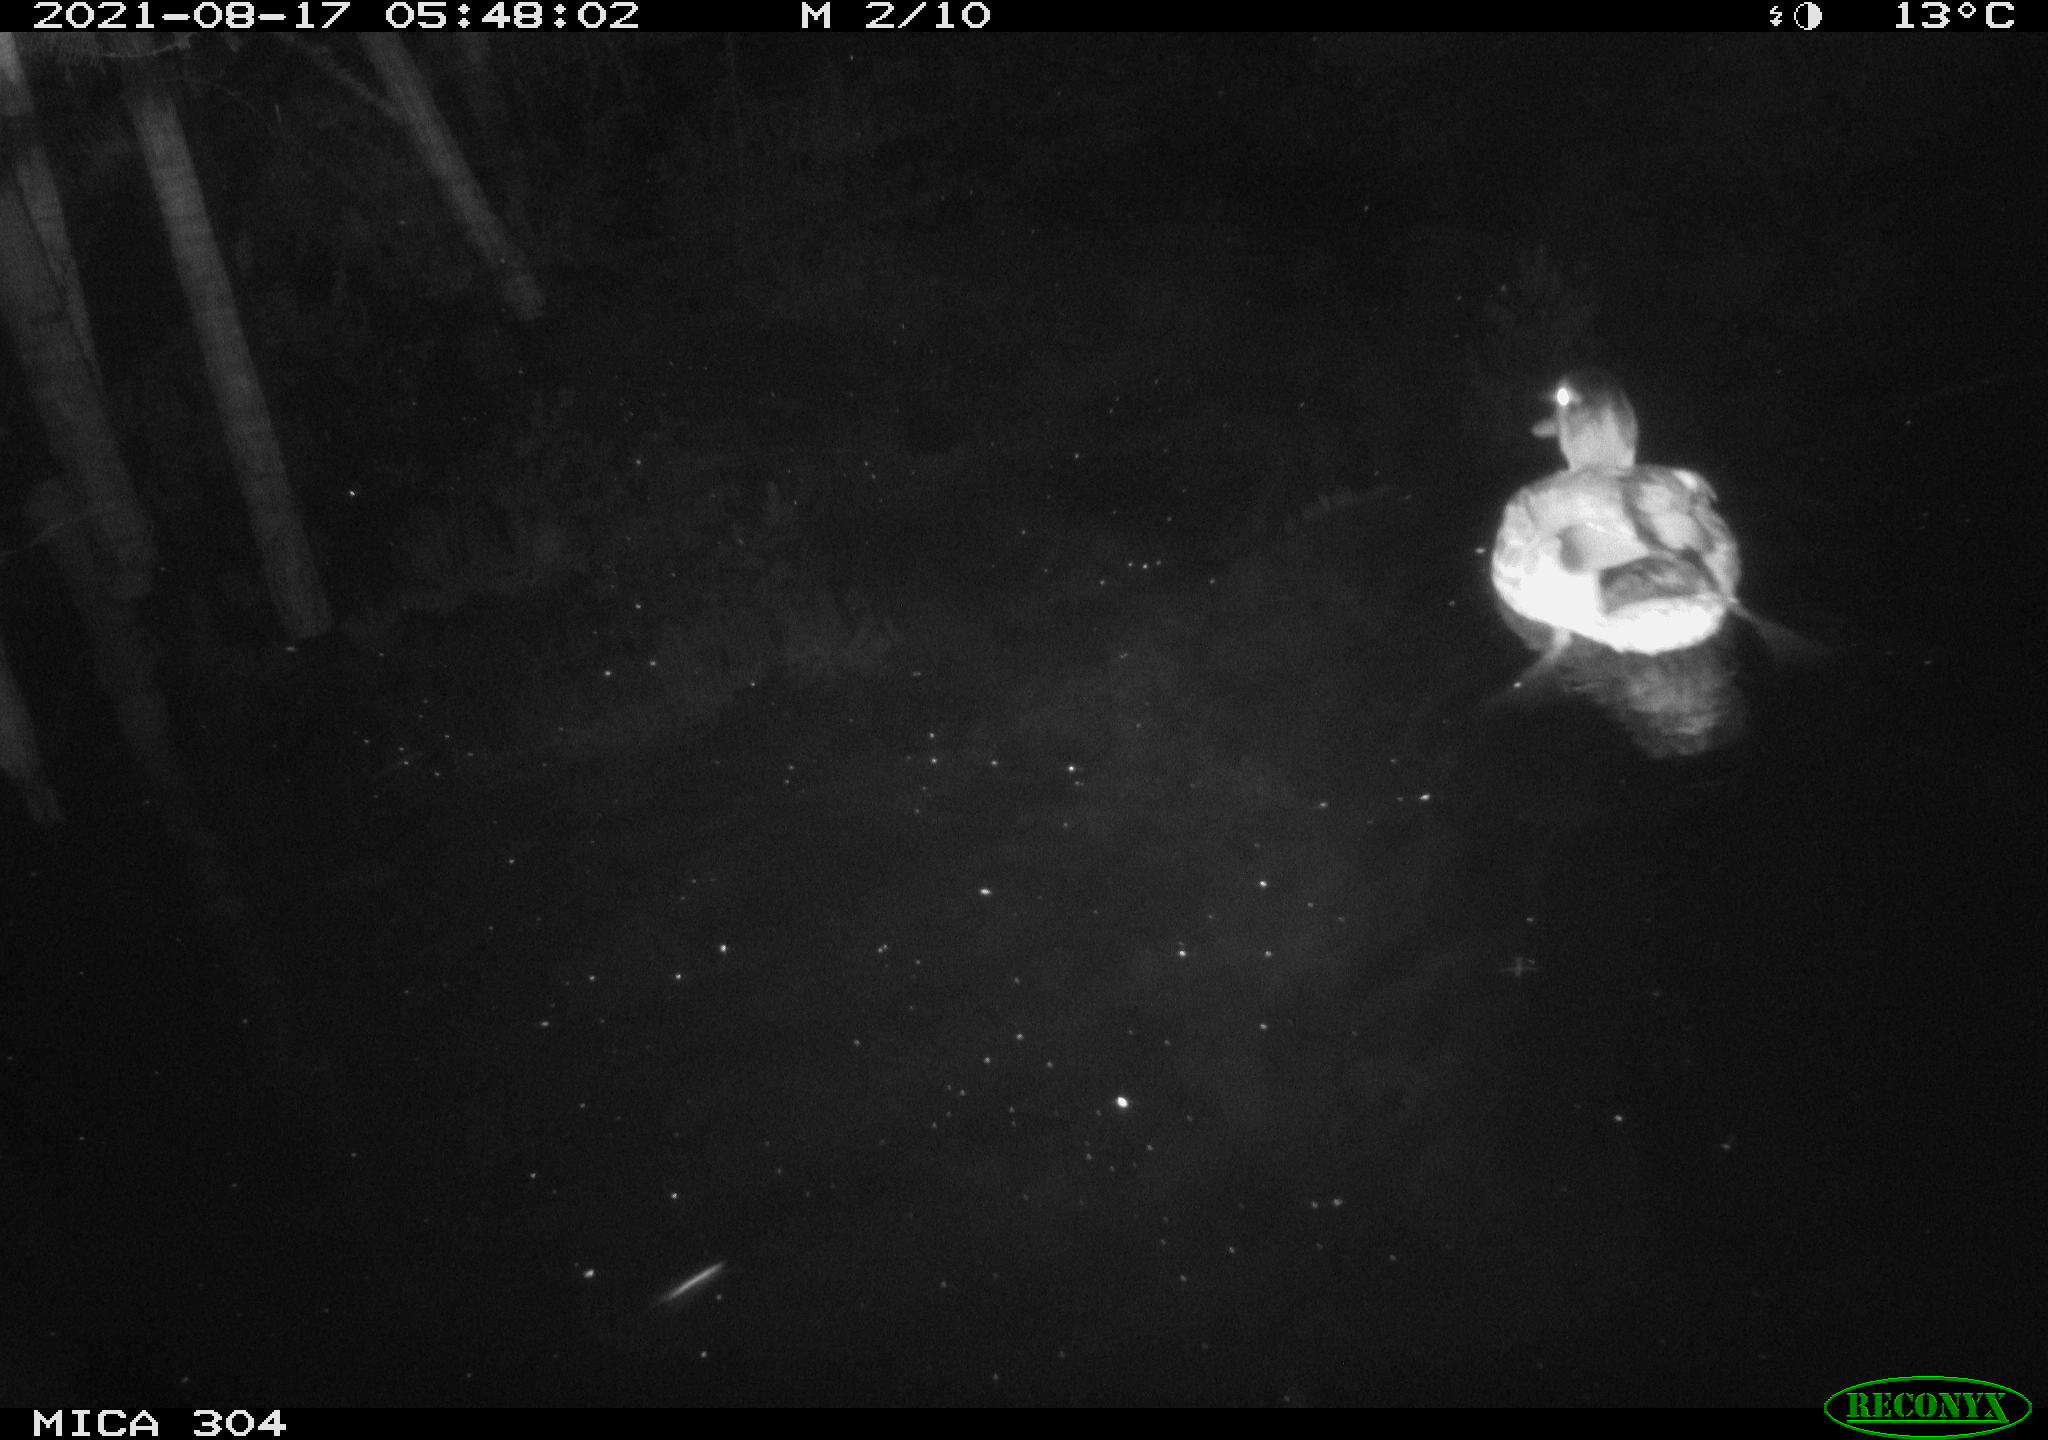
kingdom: Animalia
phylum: Chordata
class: Aves
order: Anseriformes
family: Anatidae
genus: Anas
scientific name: Anas platyrhynchos
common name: Mallard
